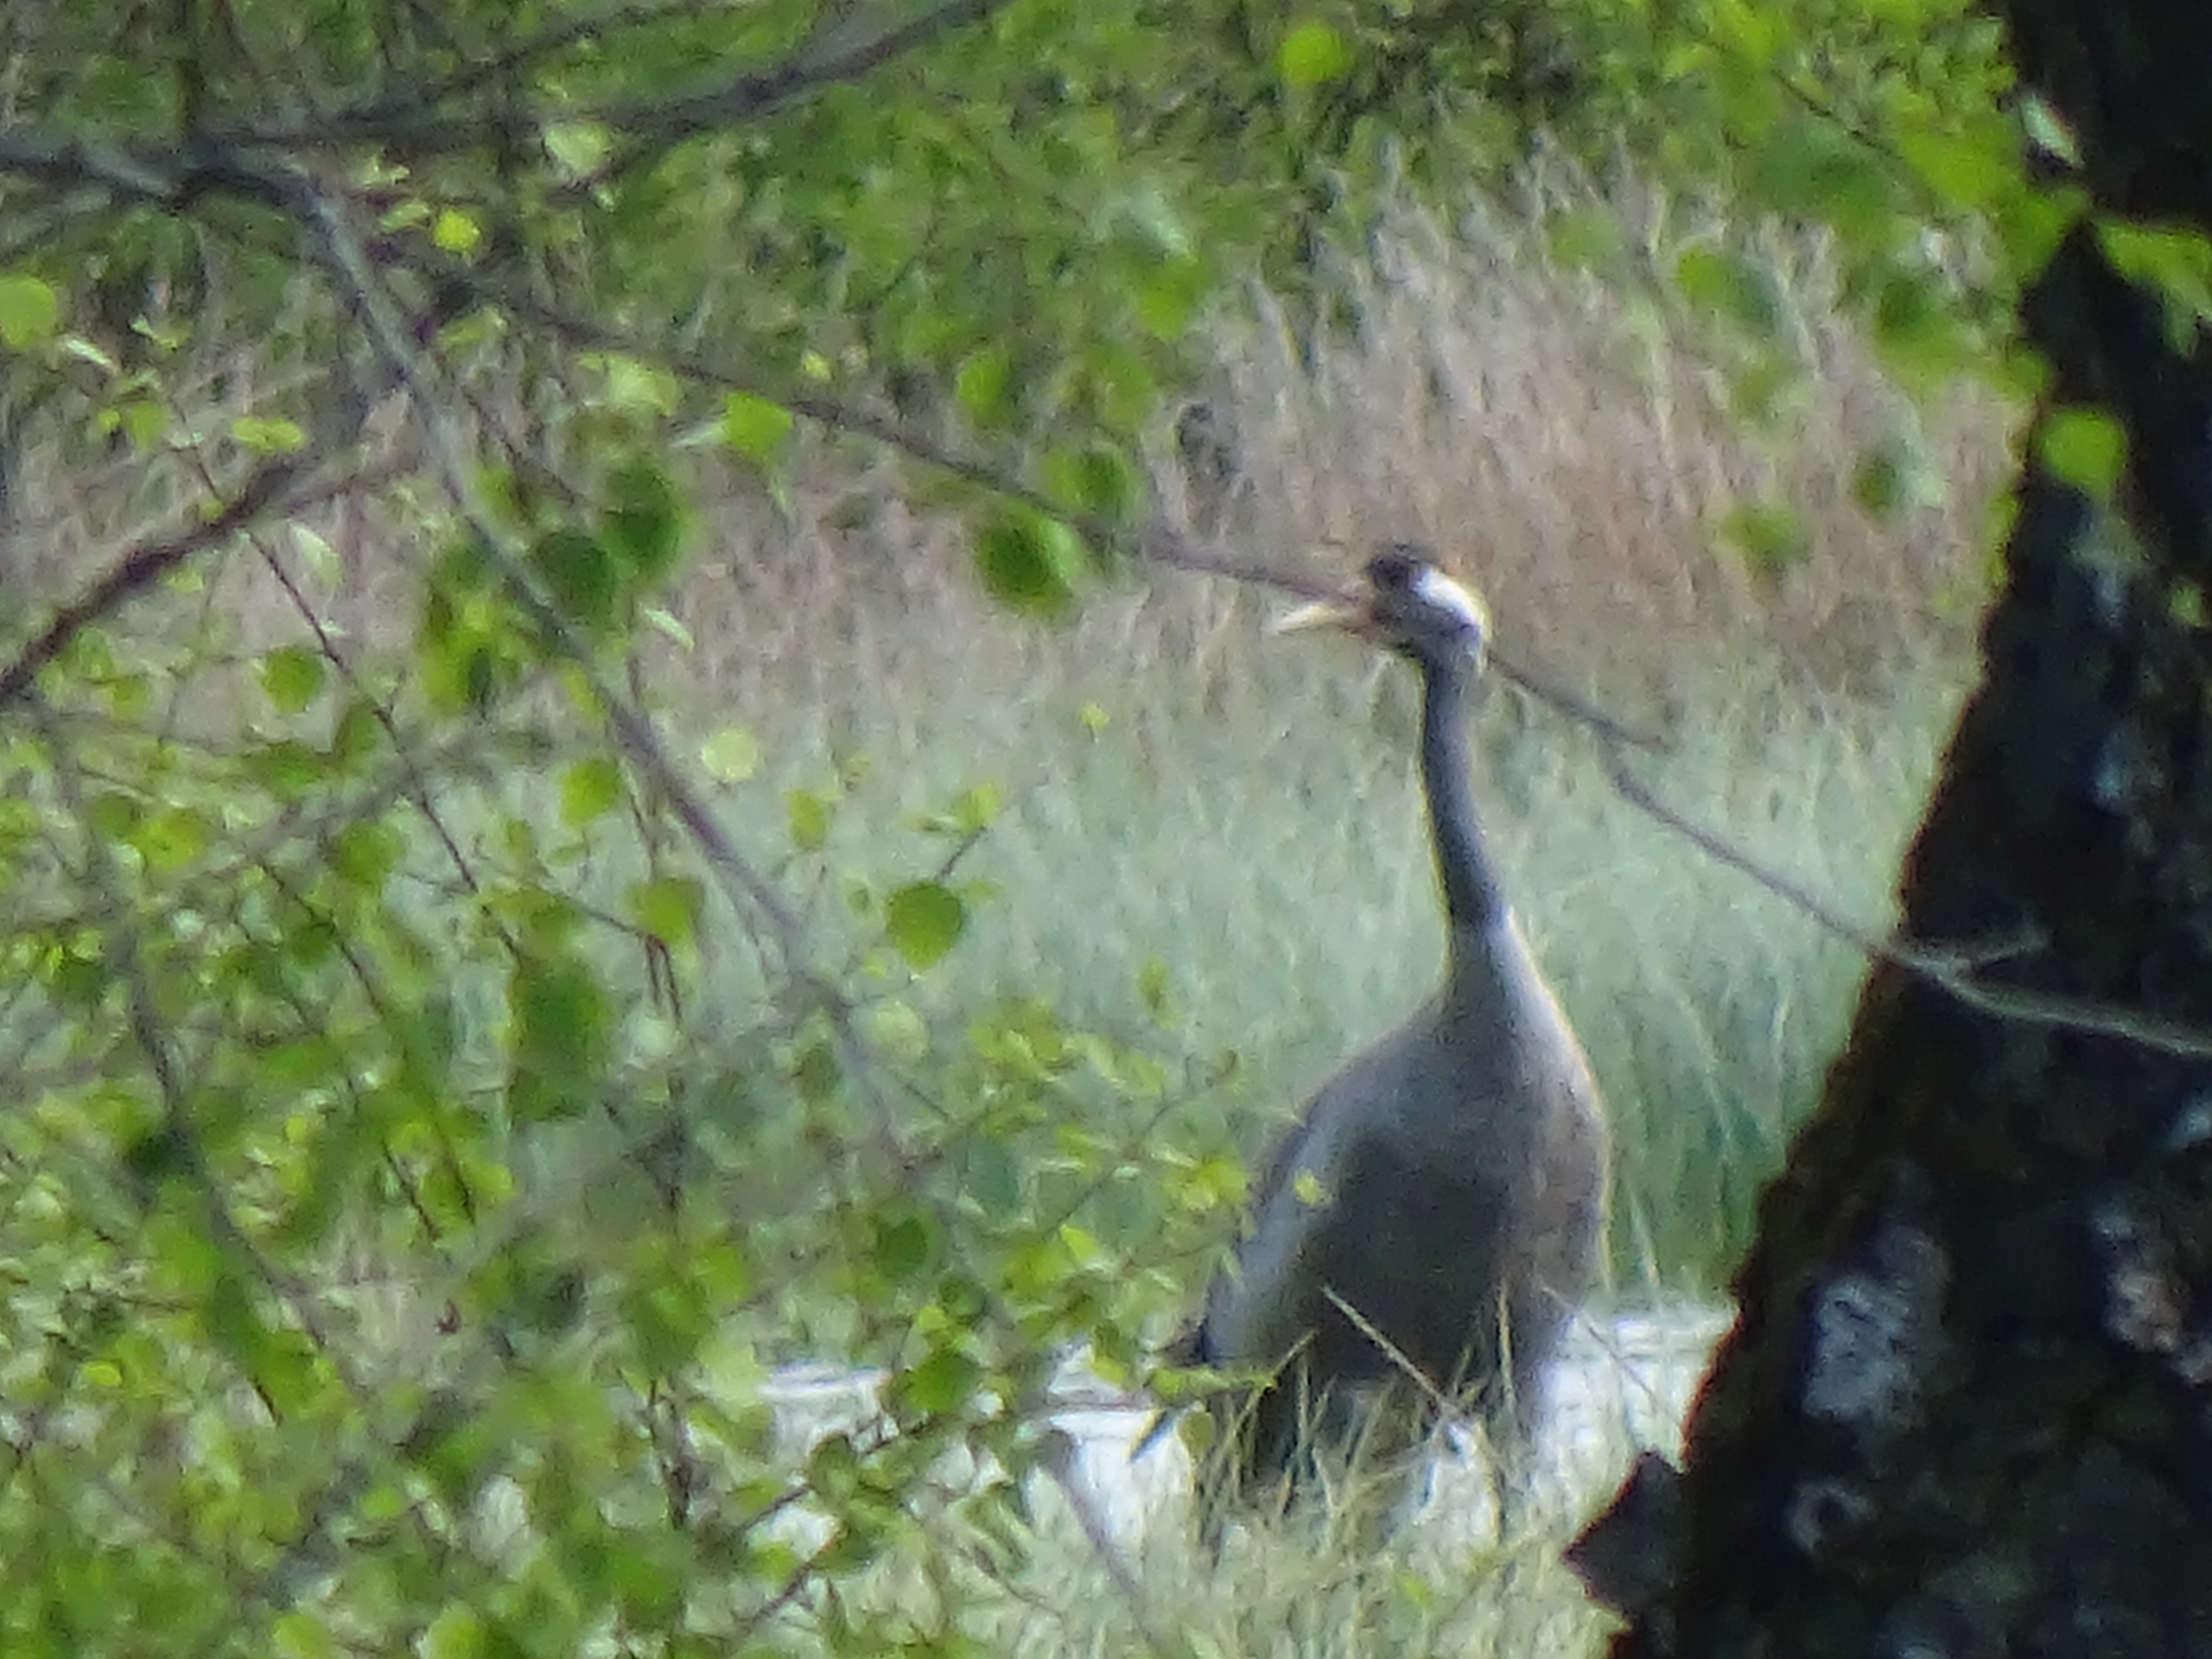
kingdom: Animalia
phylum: Chordata
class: Aves
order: Gruiformes
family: Gruidae
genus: Grus
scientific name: Grus grus
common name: Trane
